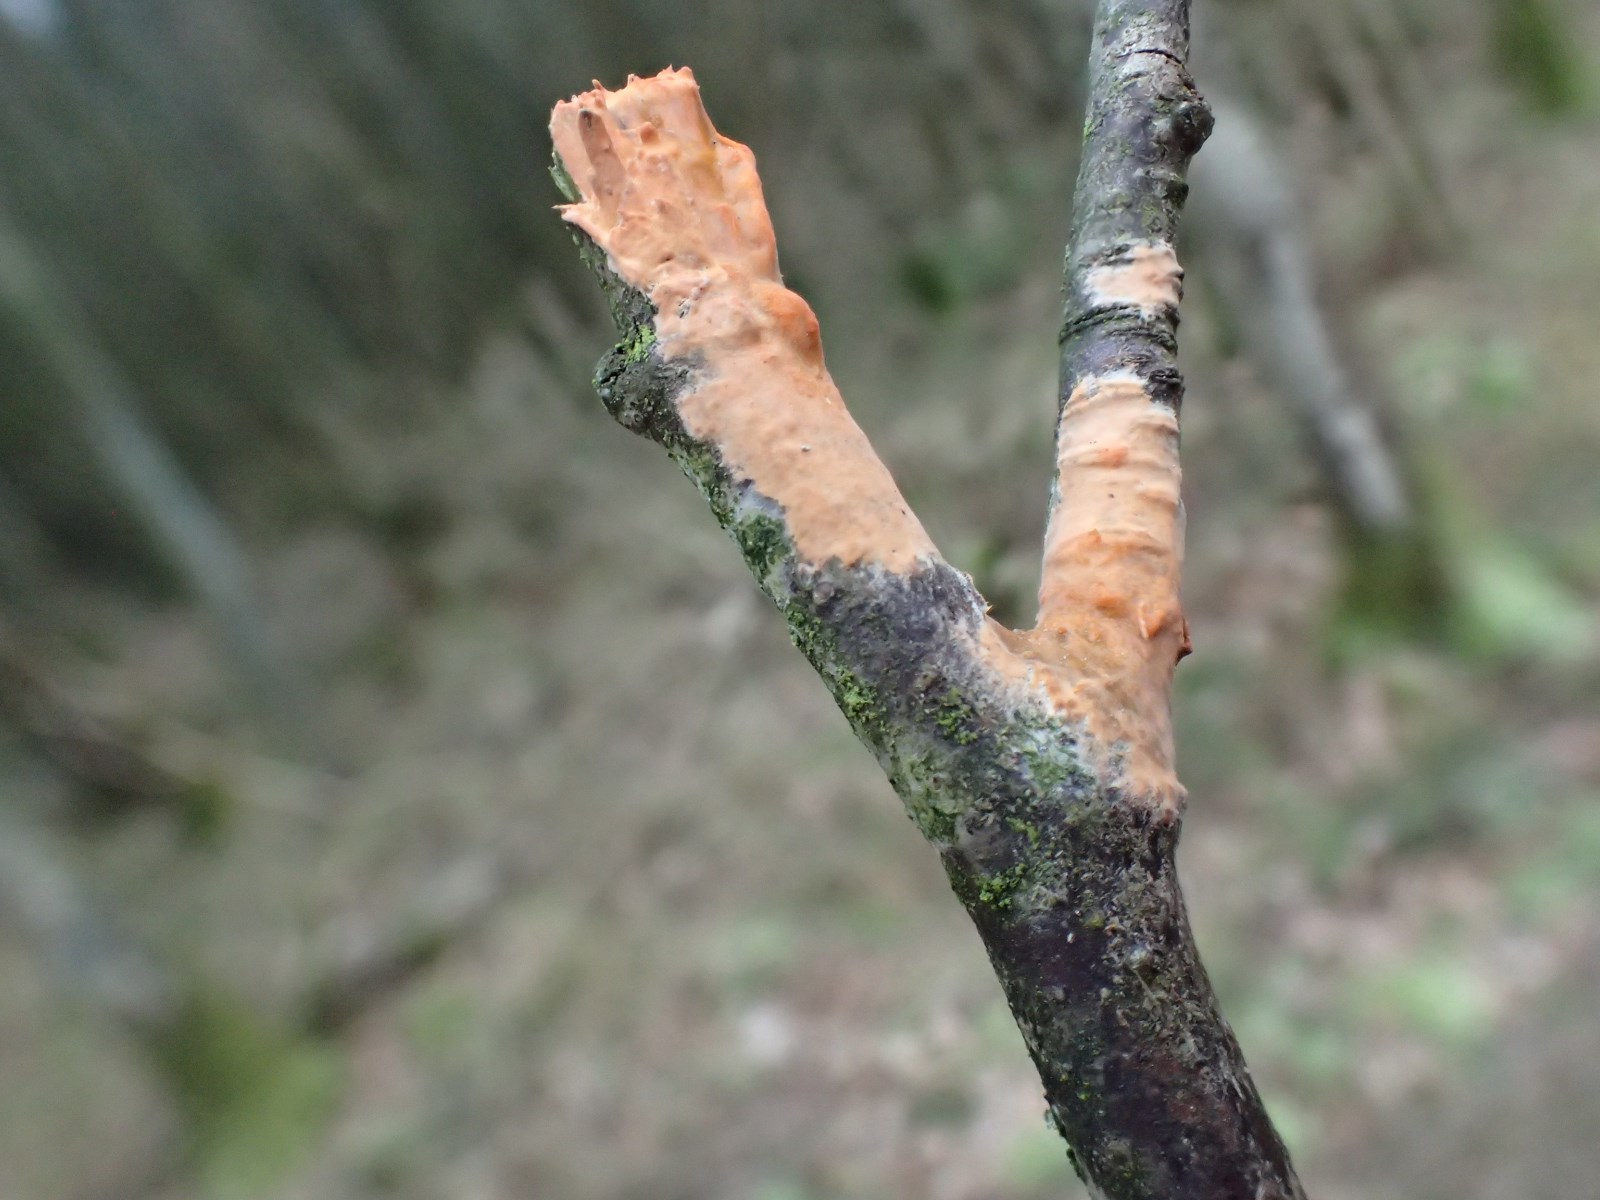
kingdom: Fungi
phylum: Basidiomycota
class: Agaricomycetes
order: Russulales
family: Peniophoraceae
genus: Peniophora
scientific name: Peniophora incarnata
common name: laksefarvet voksskind
